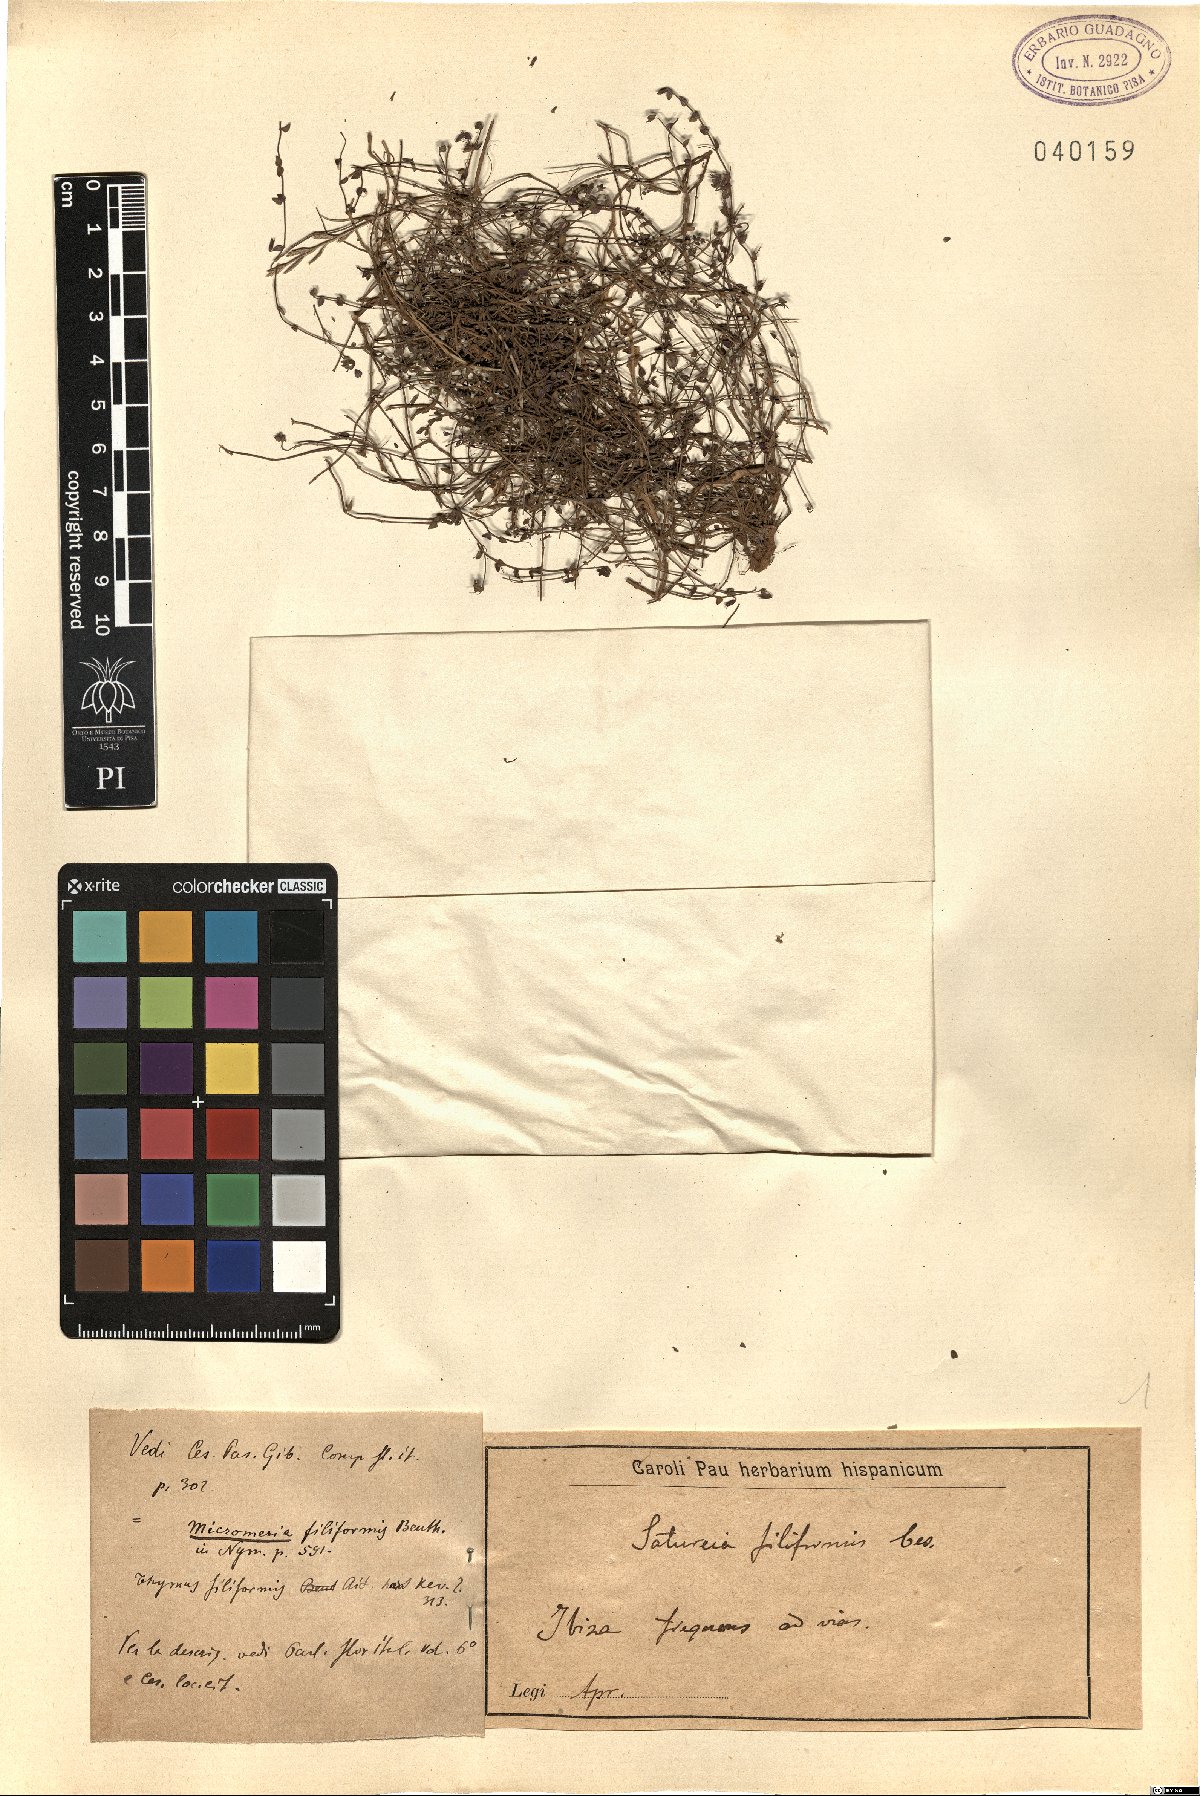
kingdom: Plantae
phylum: Tracheophyta
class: Magnoliopsida
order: Lamiales
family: Lamiaceae
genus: Micromeria
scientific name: Micromeria filiformis
